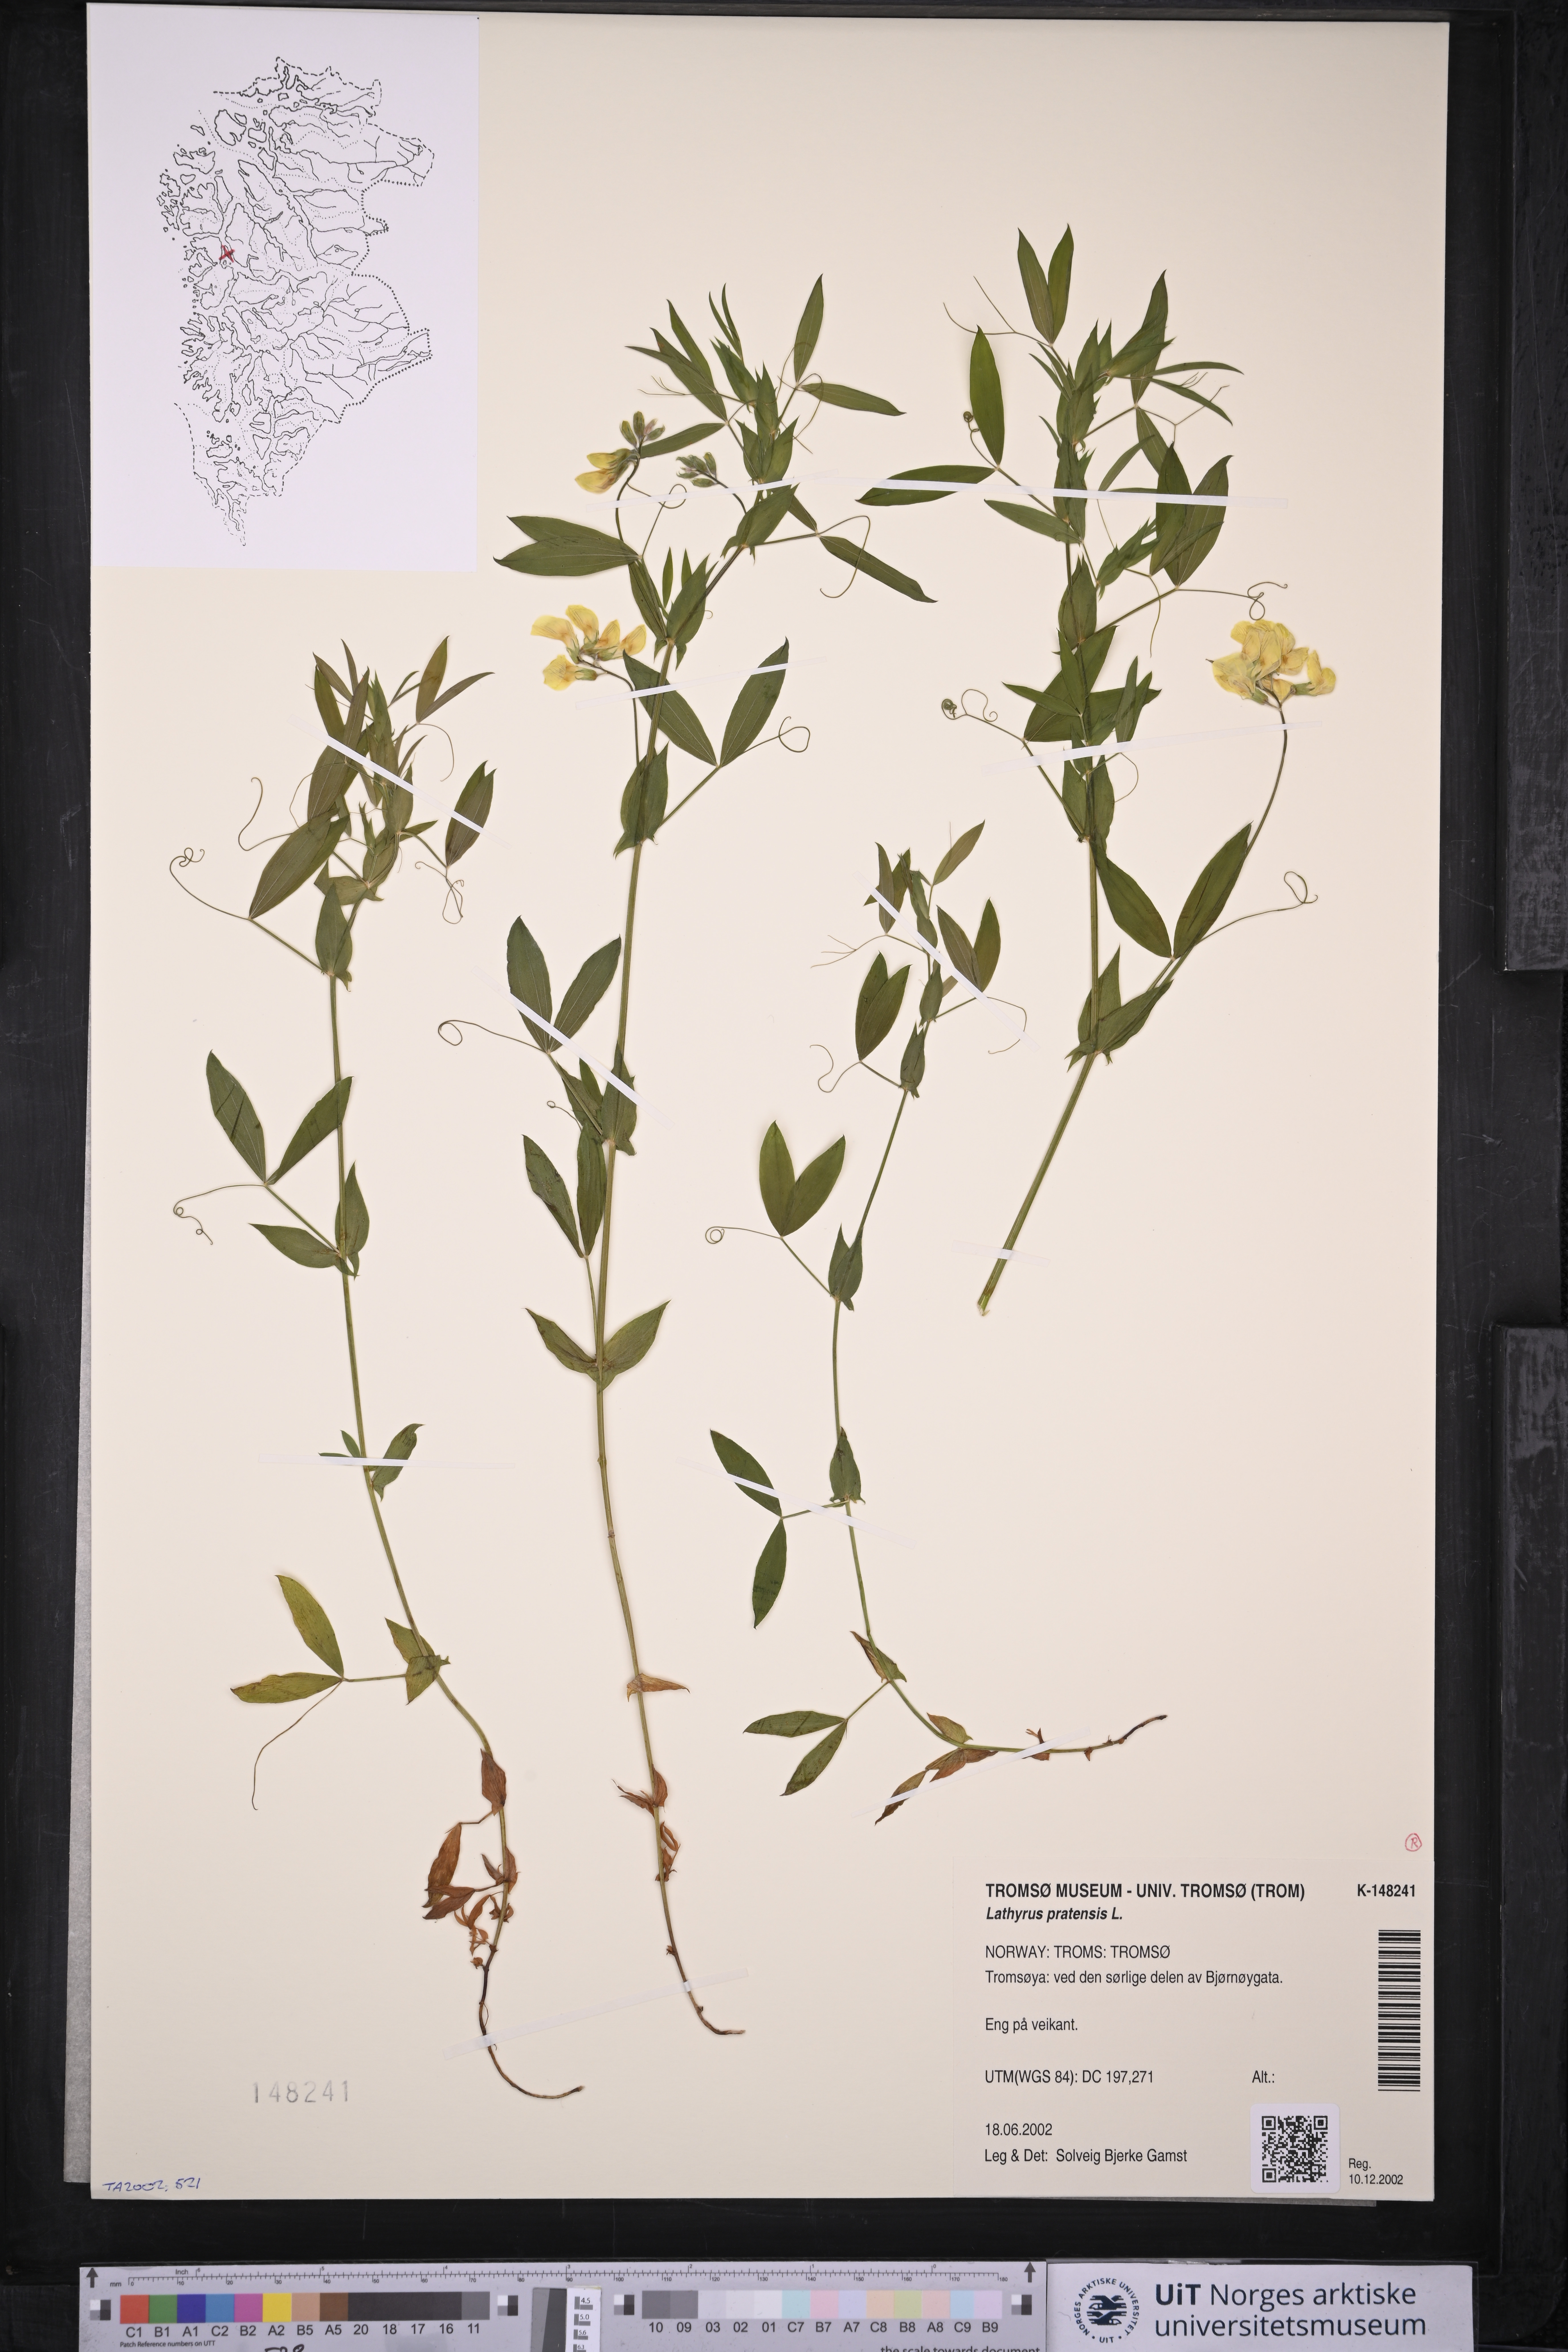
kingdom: Plantae
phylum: Tracheophyta
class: Magnoliopsida
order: Fabales
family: Fabaceae
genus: Lathyrus
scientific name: Lathyrus pratensis
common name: Meadow vetchling
